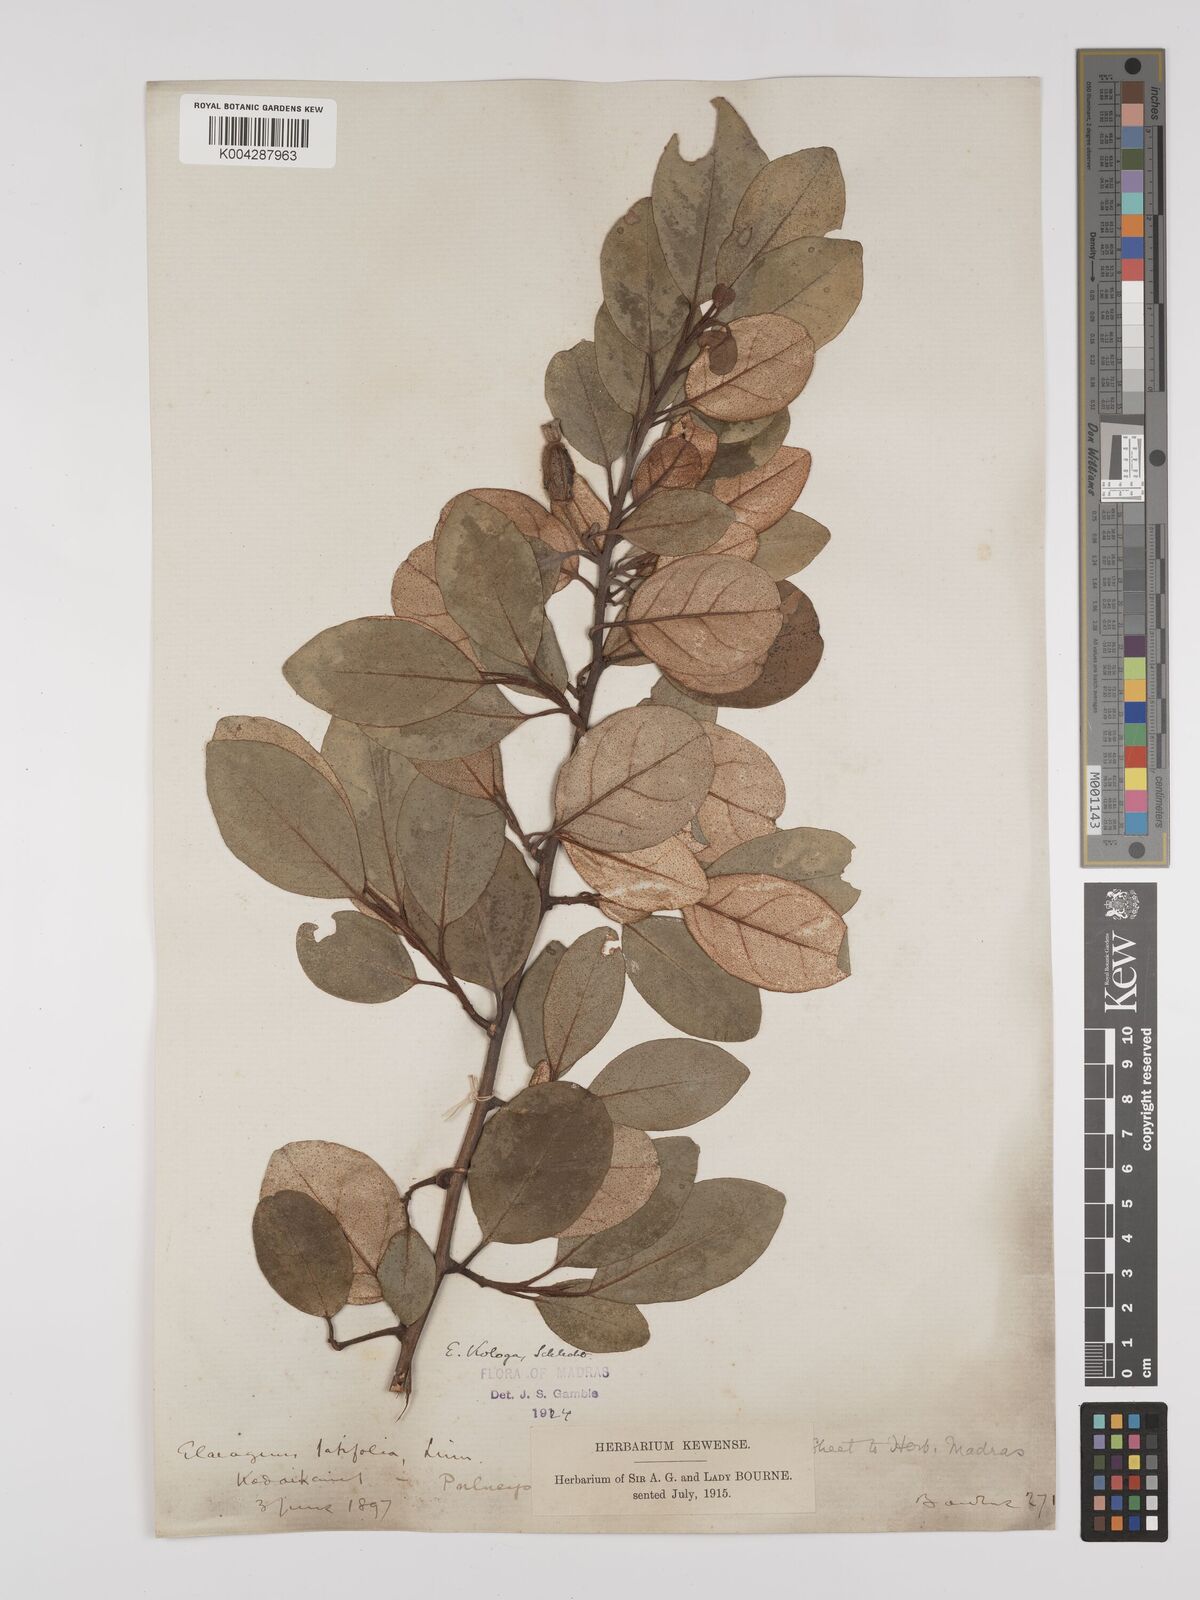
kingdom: Plantae
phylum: Tracheophyta
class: Magnoliopsida
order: Rosales
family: Elaeagnaceae
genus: Elaeagnus
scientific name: Elaeagnus conferta
